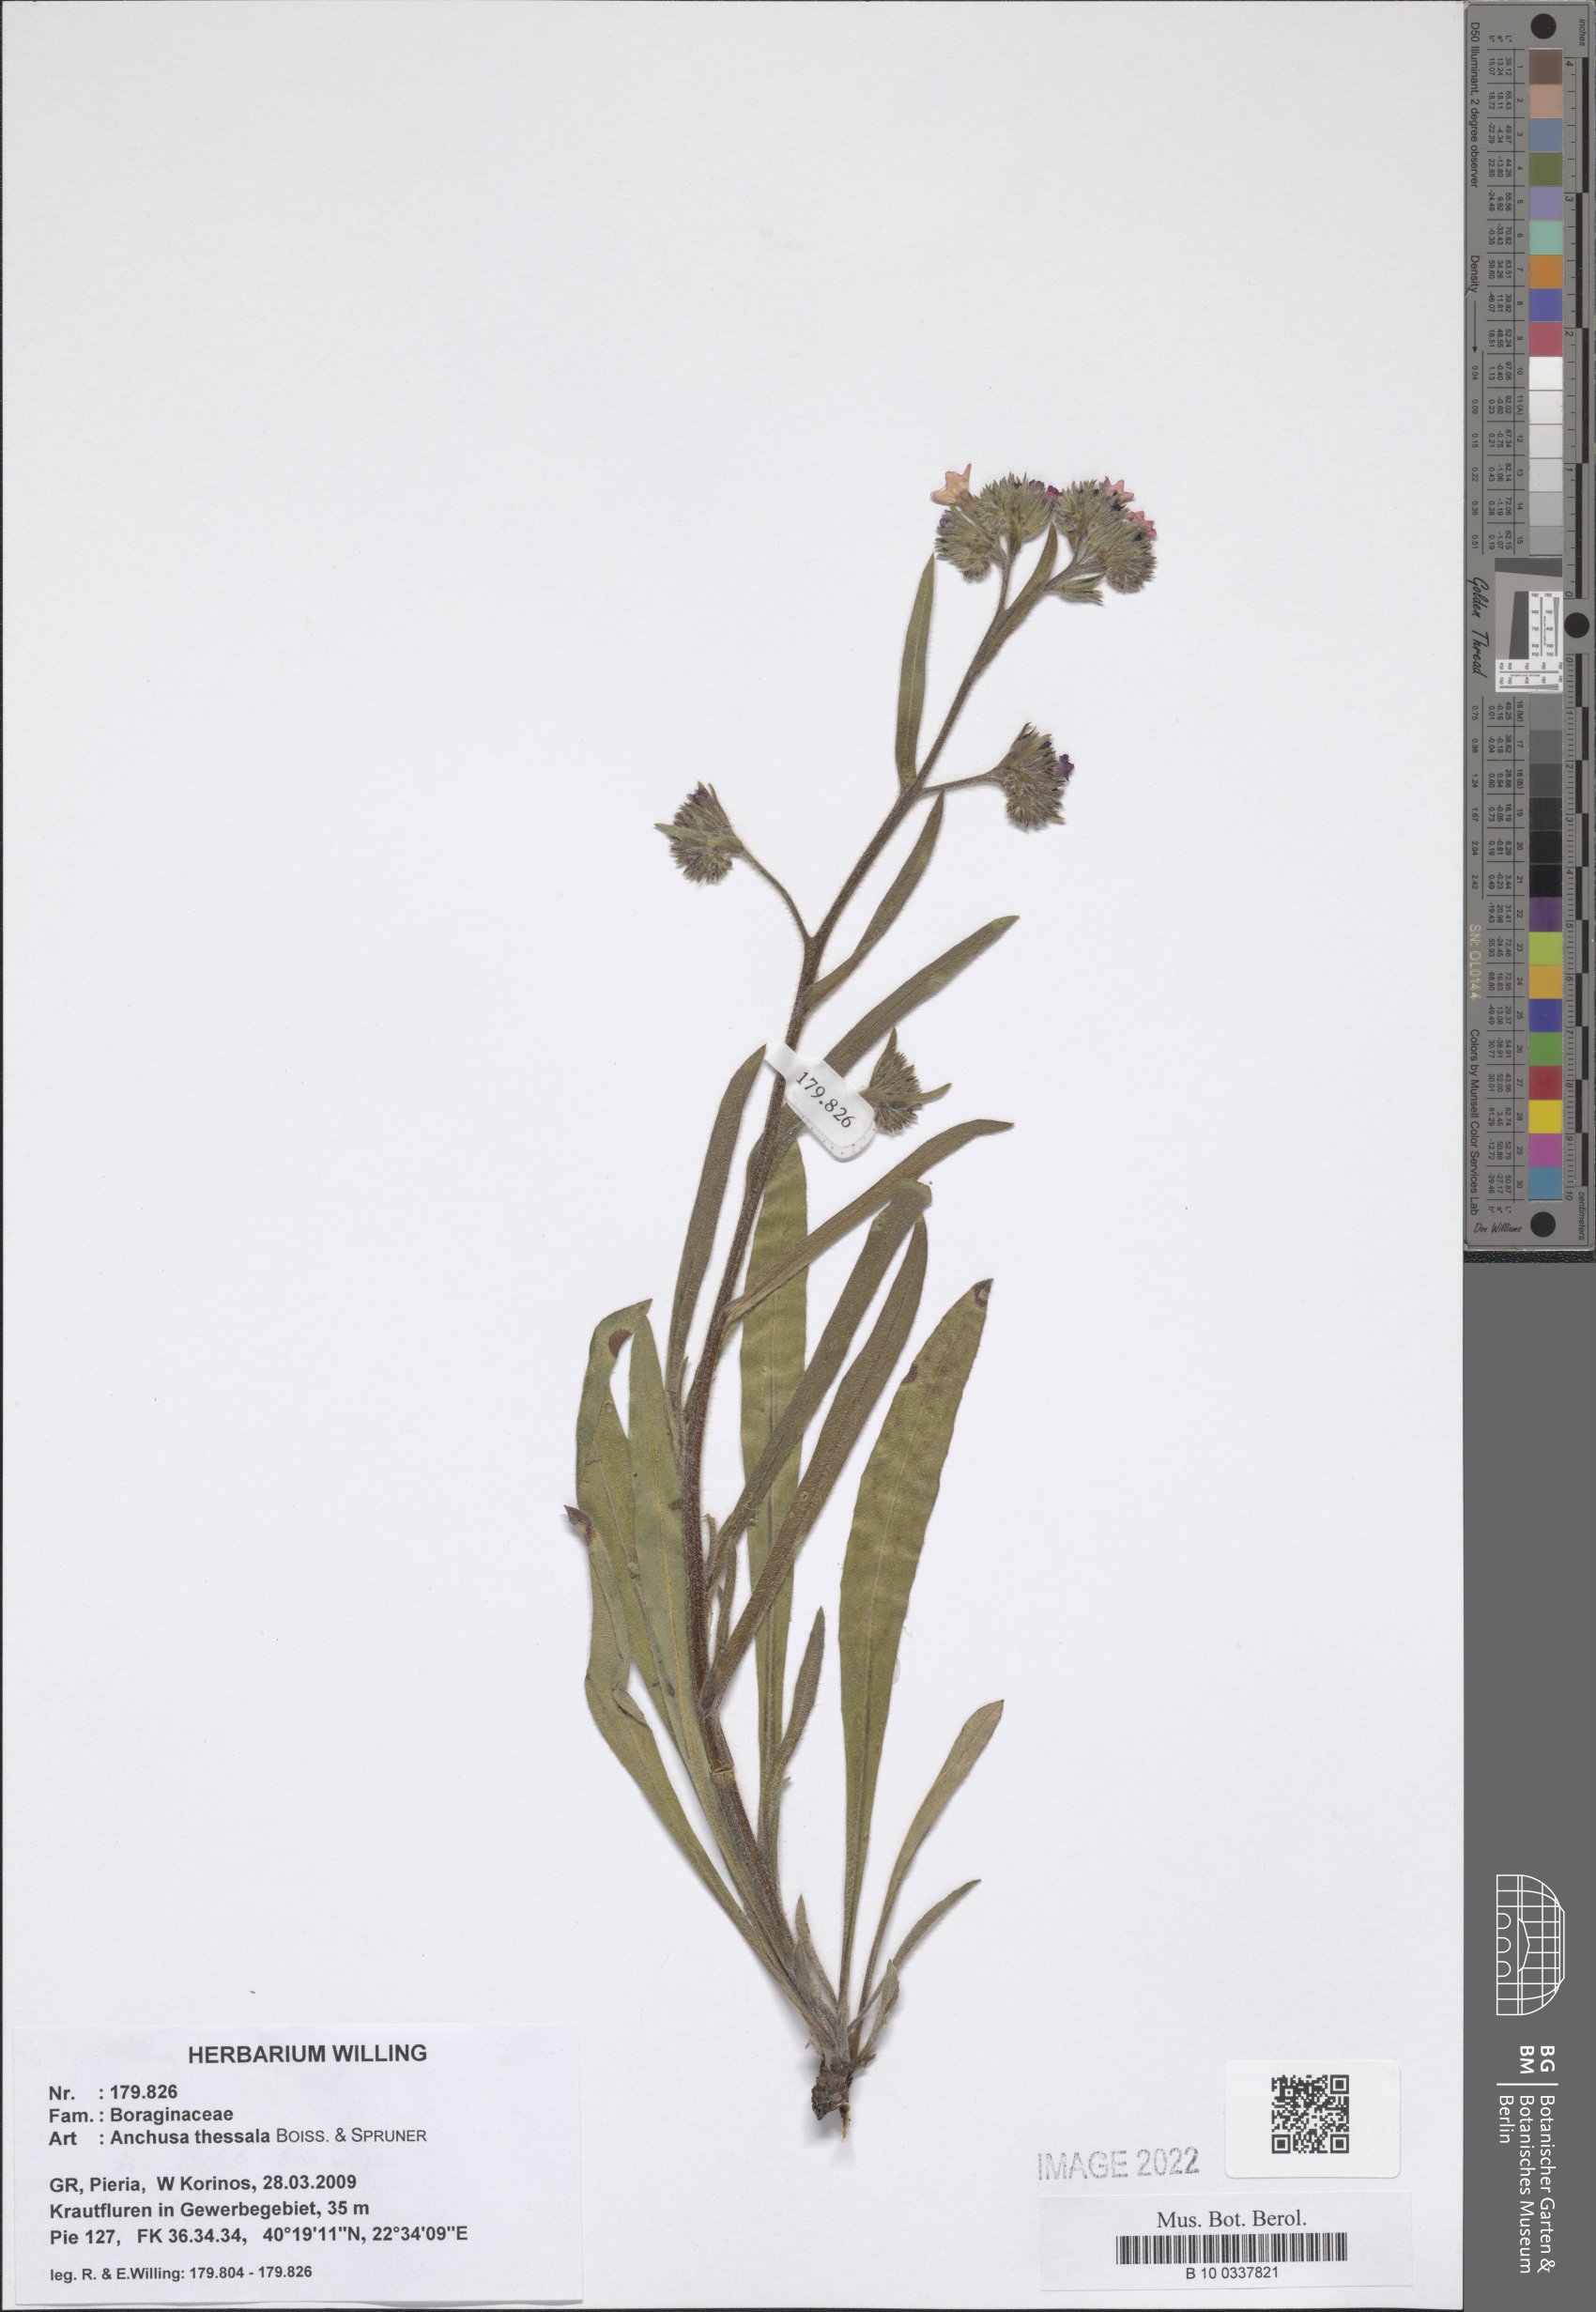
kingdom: Plantae
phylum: Tracheophyta
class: Magnoliopsida
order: Boraginales
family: Boraginaceae
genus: Anchusa
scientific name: Anchusa thessala
